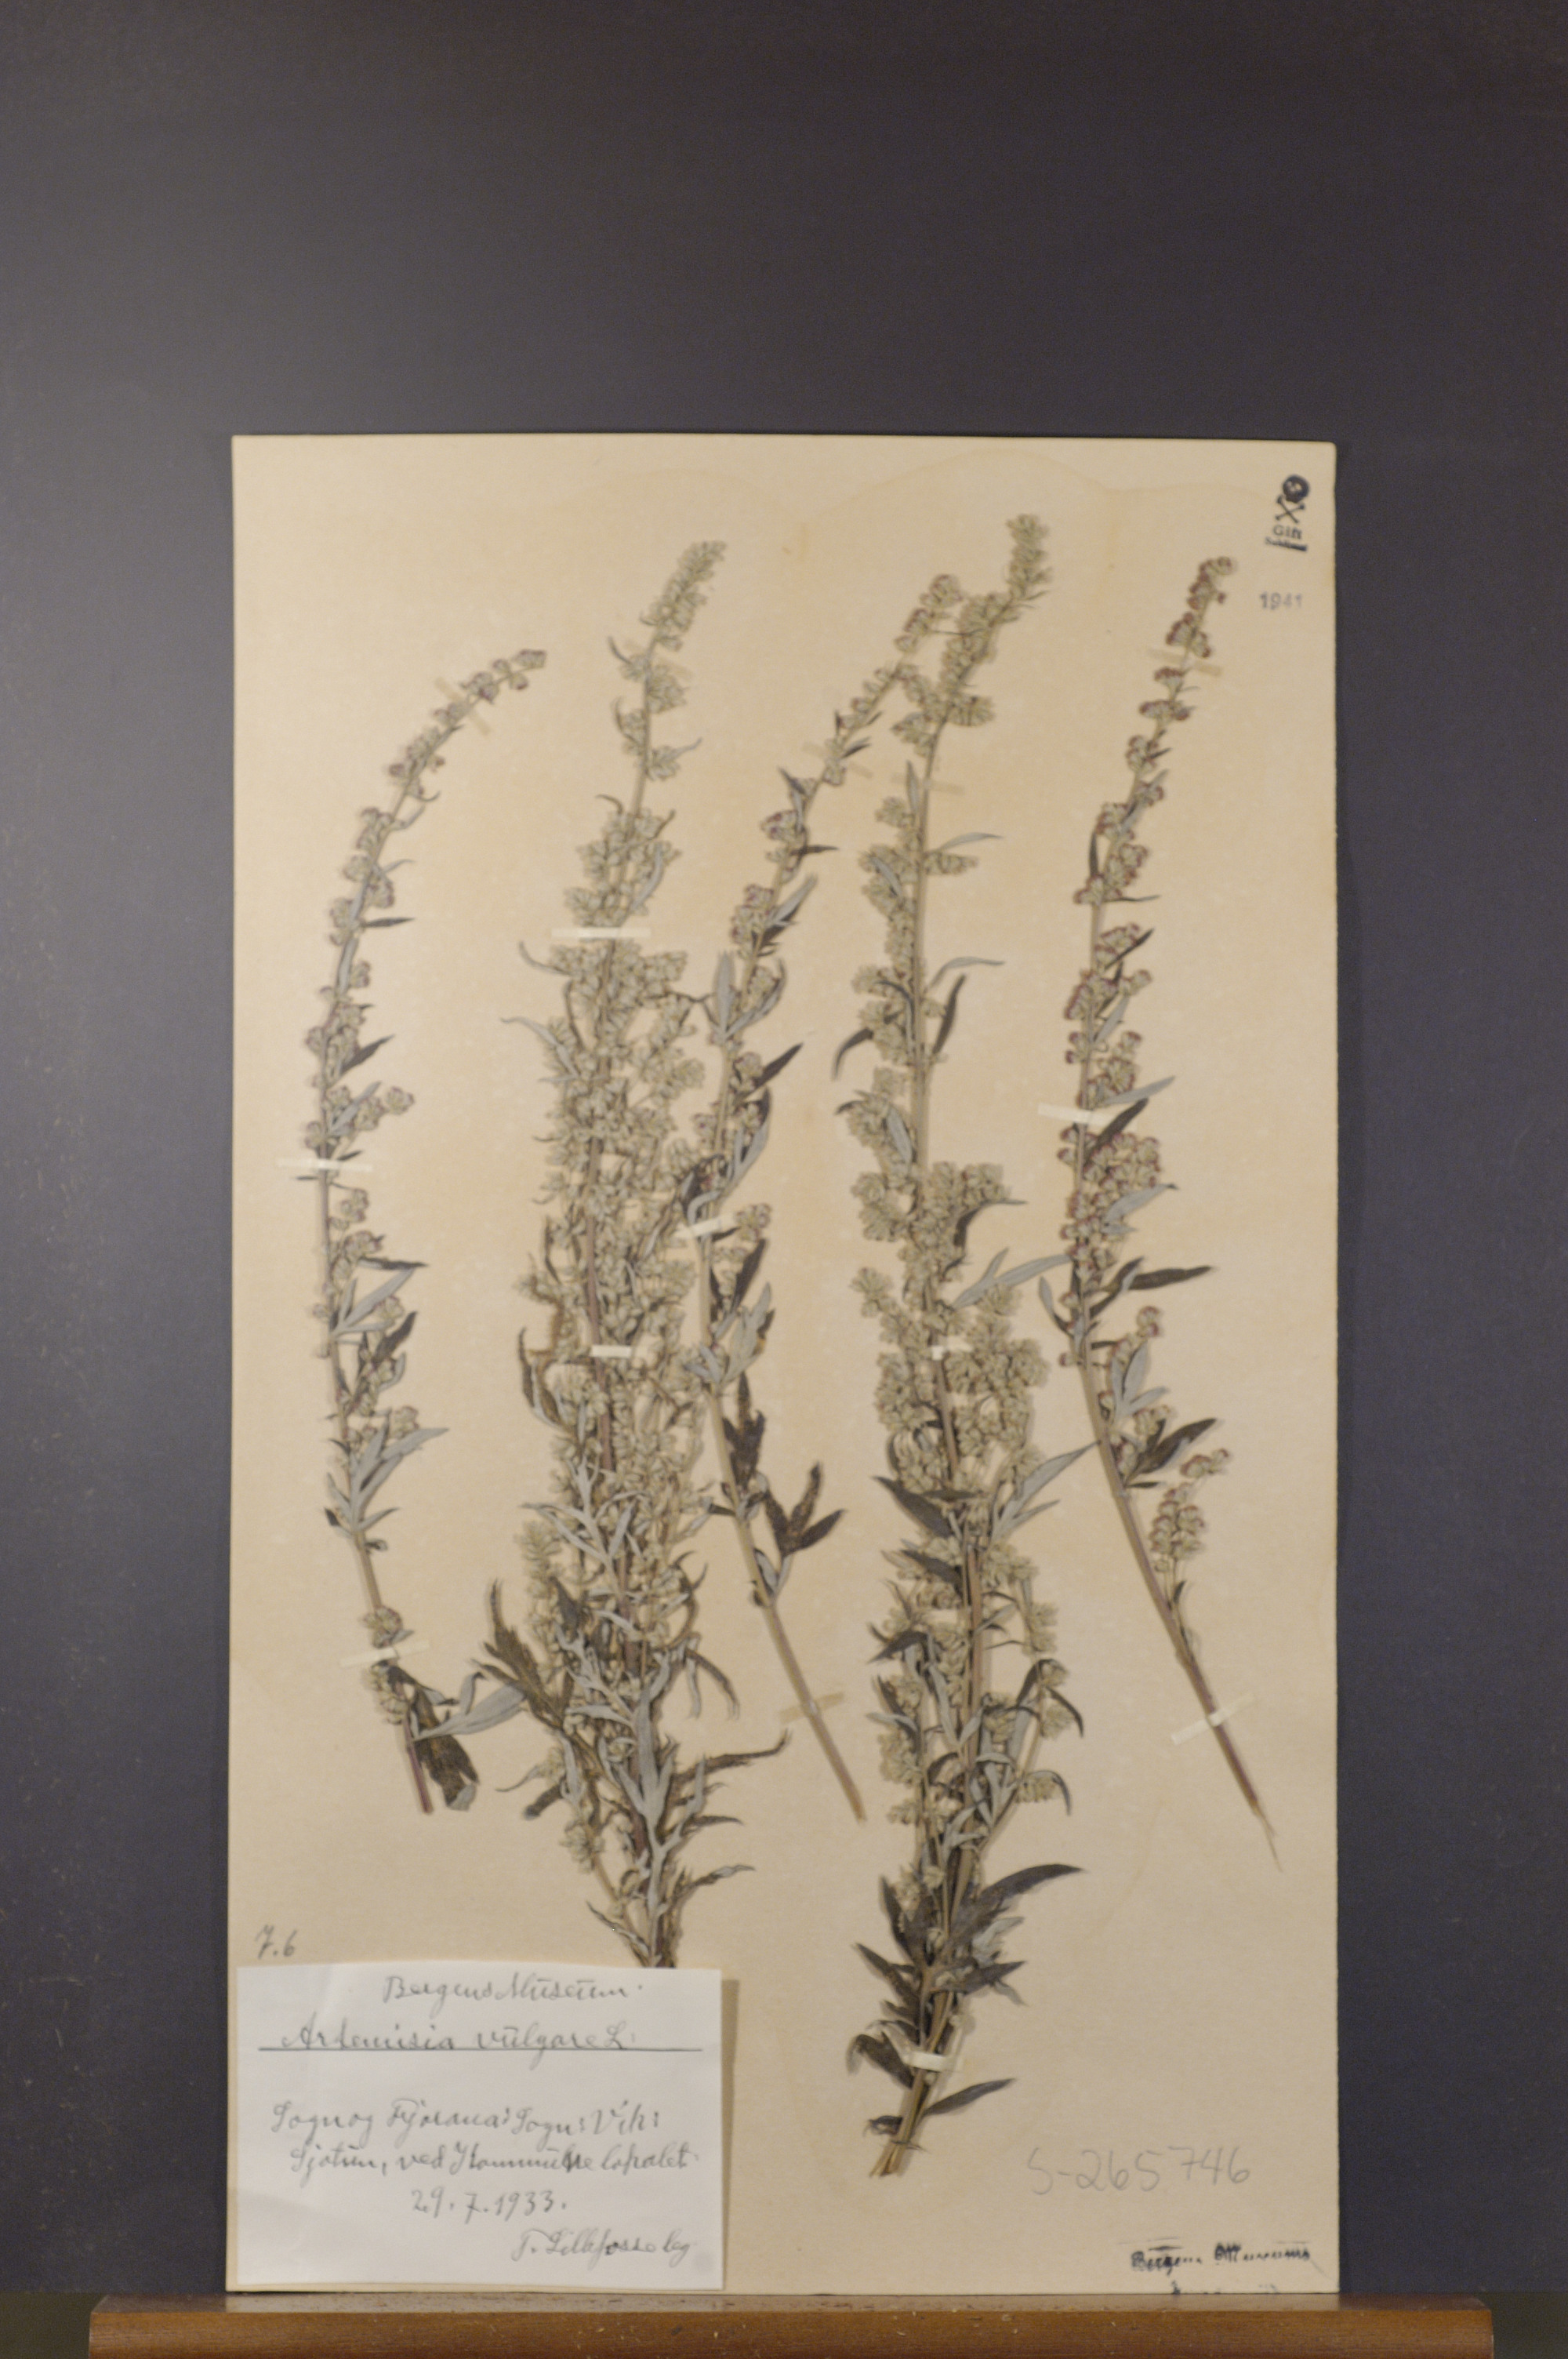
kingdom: Plantae
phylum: Tracheophyta
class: Magnoliopsida
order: Asterales
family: Asteraceae
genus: Artemisia
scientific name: Artemisia vulgaris
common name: Mugwort
